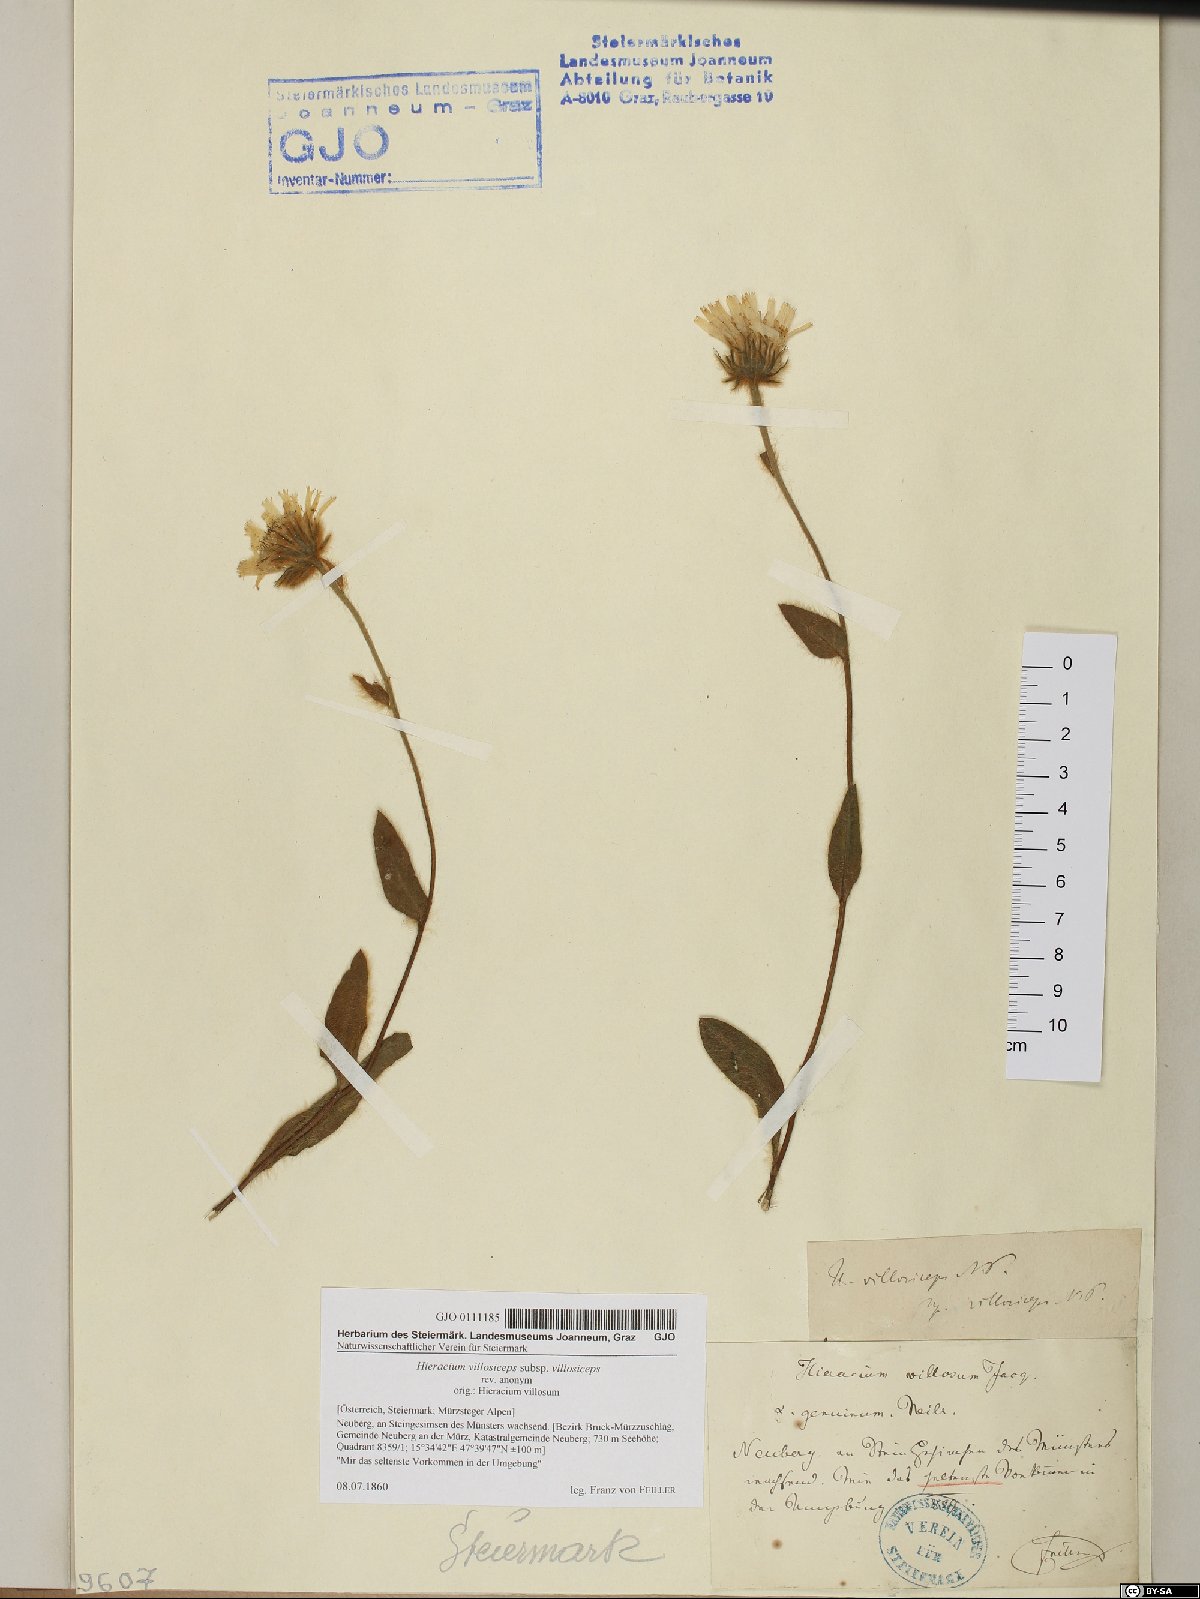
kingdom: Plantae
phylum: Tracheophyta
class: Magnoliopsida
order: Asterales
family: Asteraceae
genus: Hieracium
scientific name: Hieracium pilosum
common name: Fimbriate-pitted hawkweed
